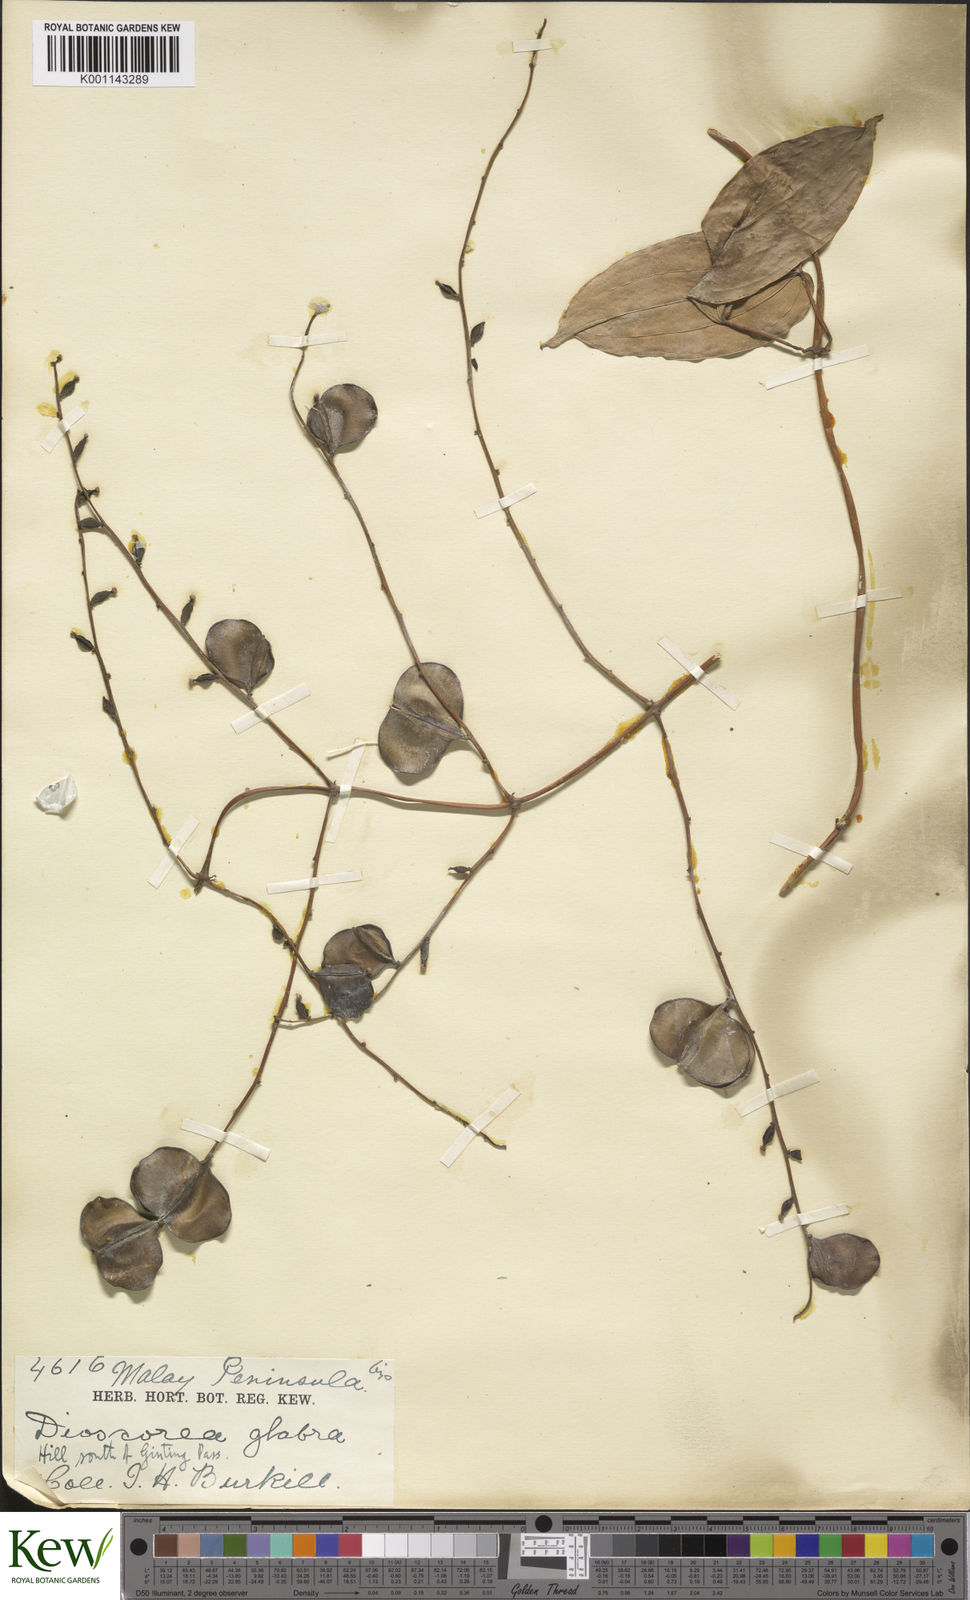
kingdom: Plantae
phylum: Tracheophyta
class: Liliopsida
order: Dioscoreales
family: Dioscoreaceae
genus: Dioscorea
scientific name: Dioscorea glabra
